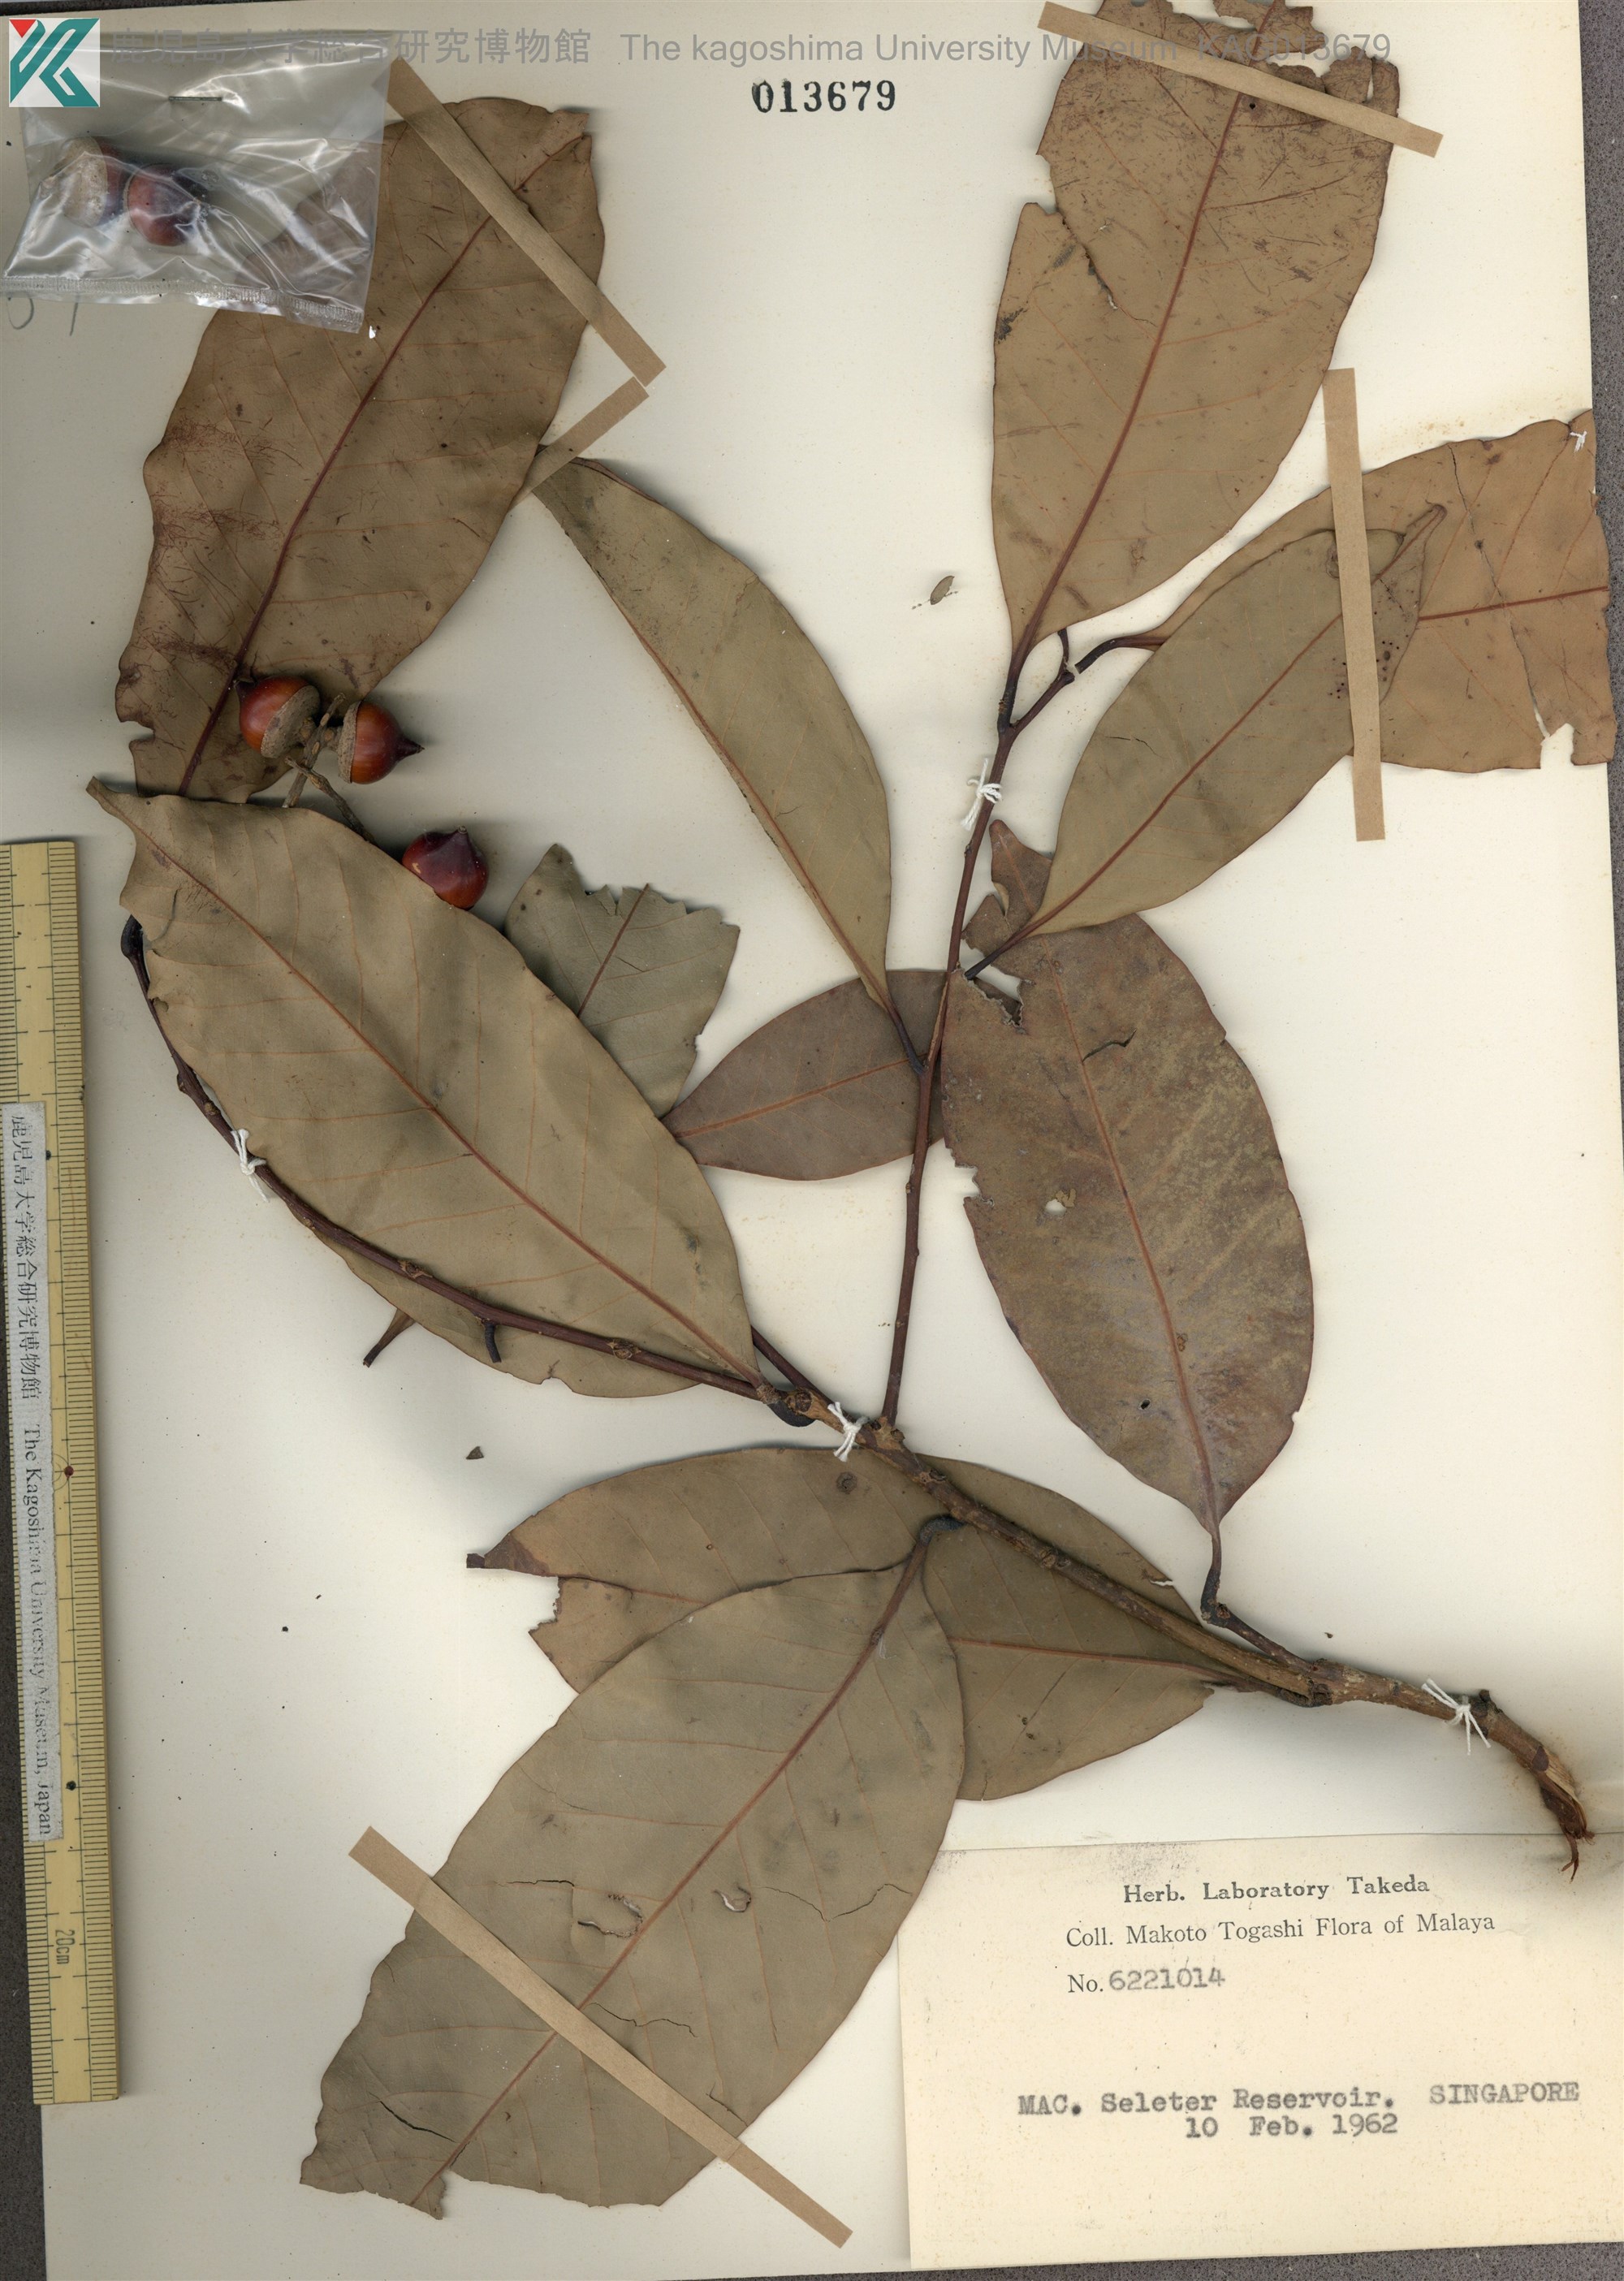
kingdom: Plantae
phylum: Tracheophyta
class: Magnoliopsida
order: Fagales
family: Fagaceae
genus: Lithocarpus
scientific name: Lithocarpus elegans
